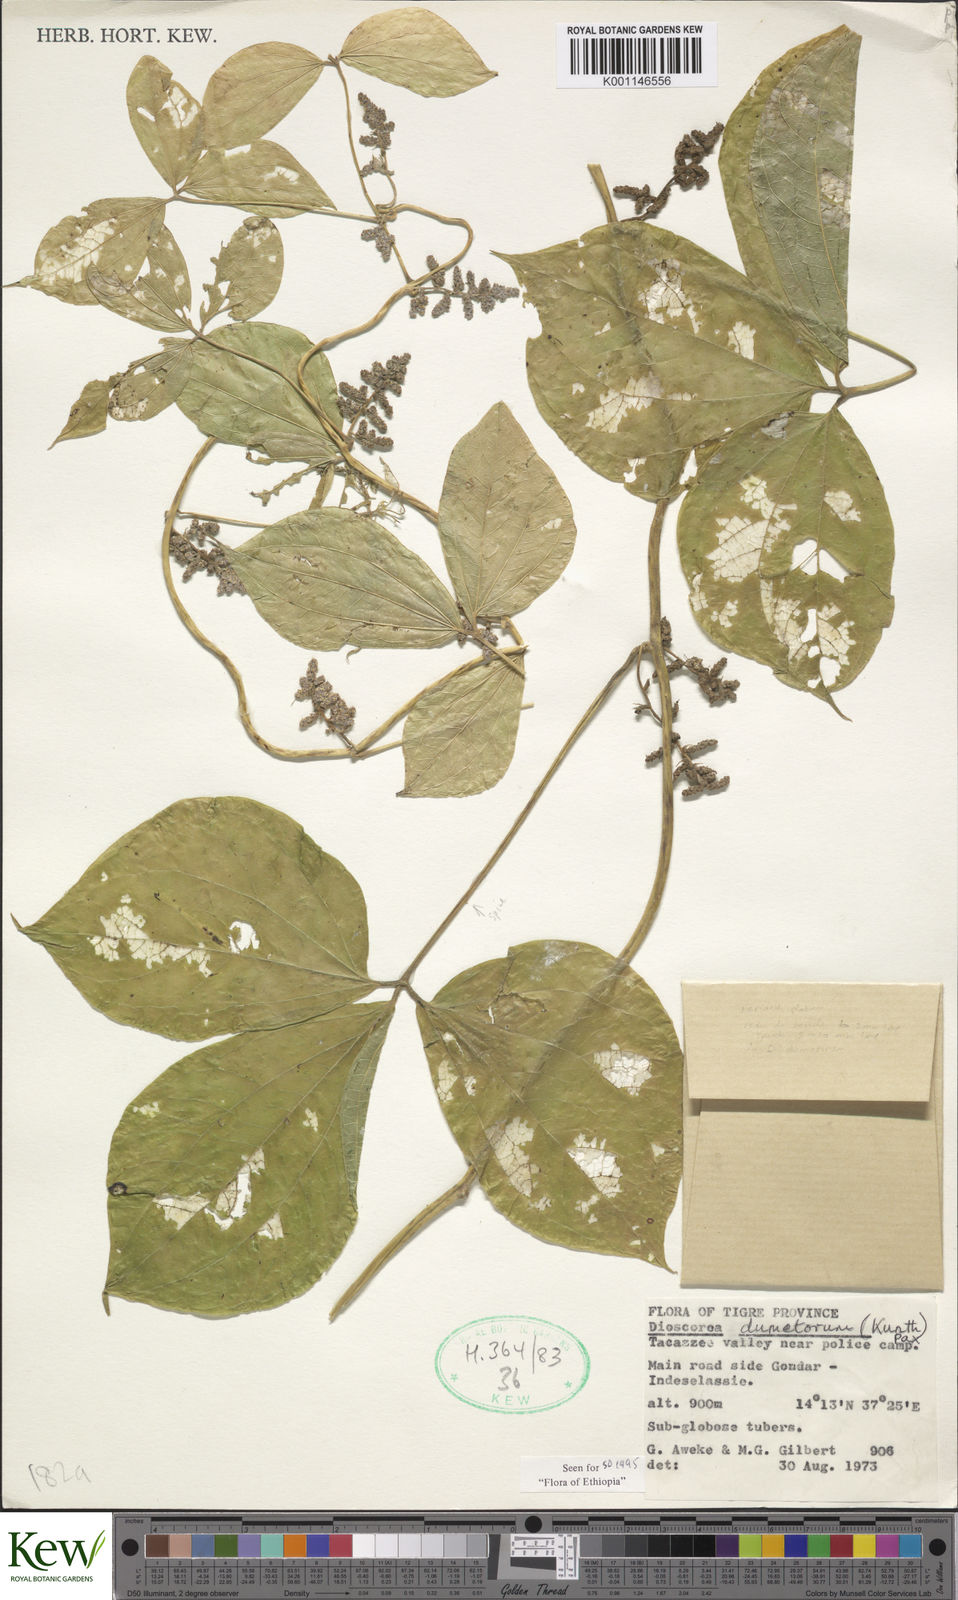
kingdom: Plantae
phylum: Tracheophyta
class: Liliopsida
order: Dioscoreales
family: Dioscoreaceae
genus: Dioscorea
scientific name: Dioscorea dumetorum
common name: African bitter yam
